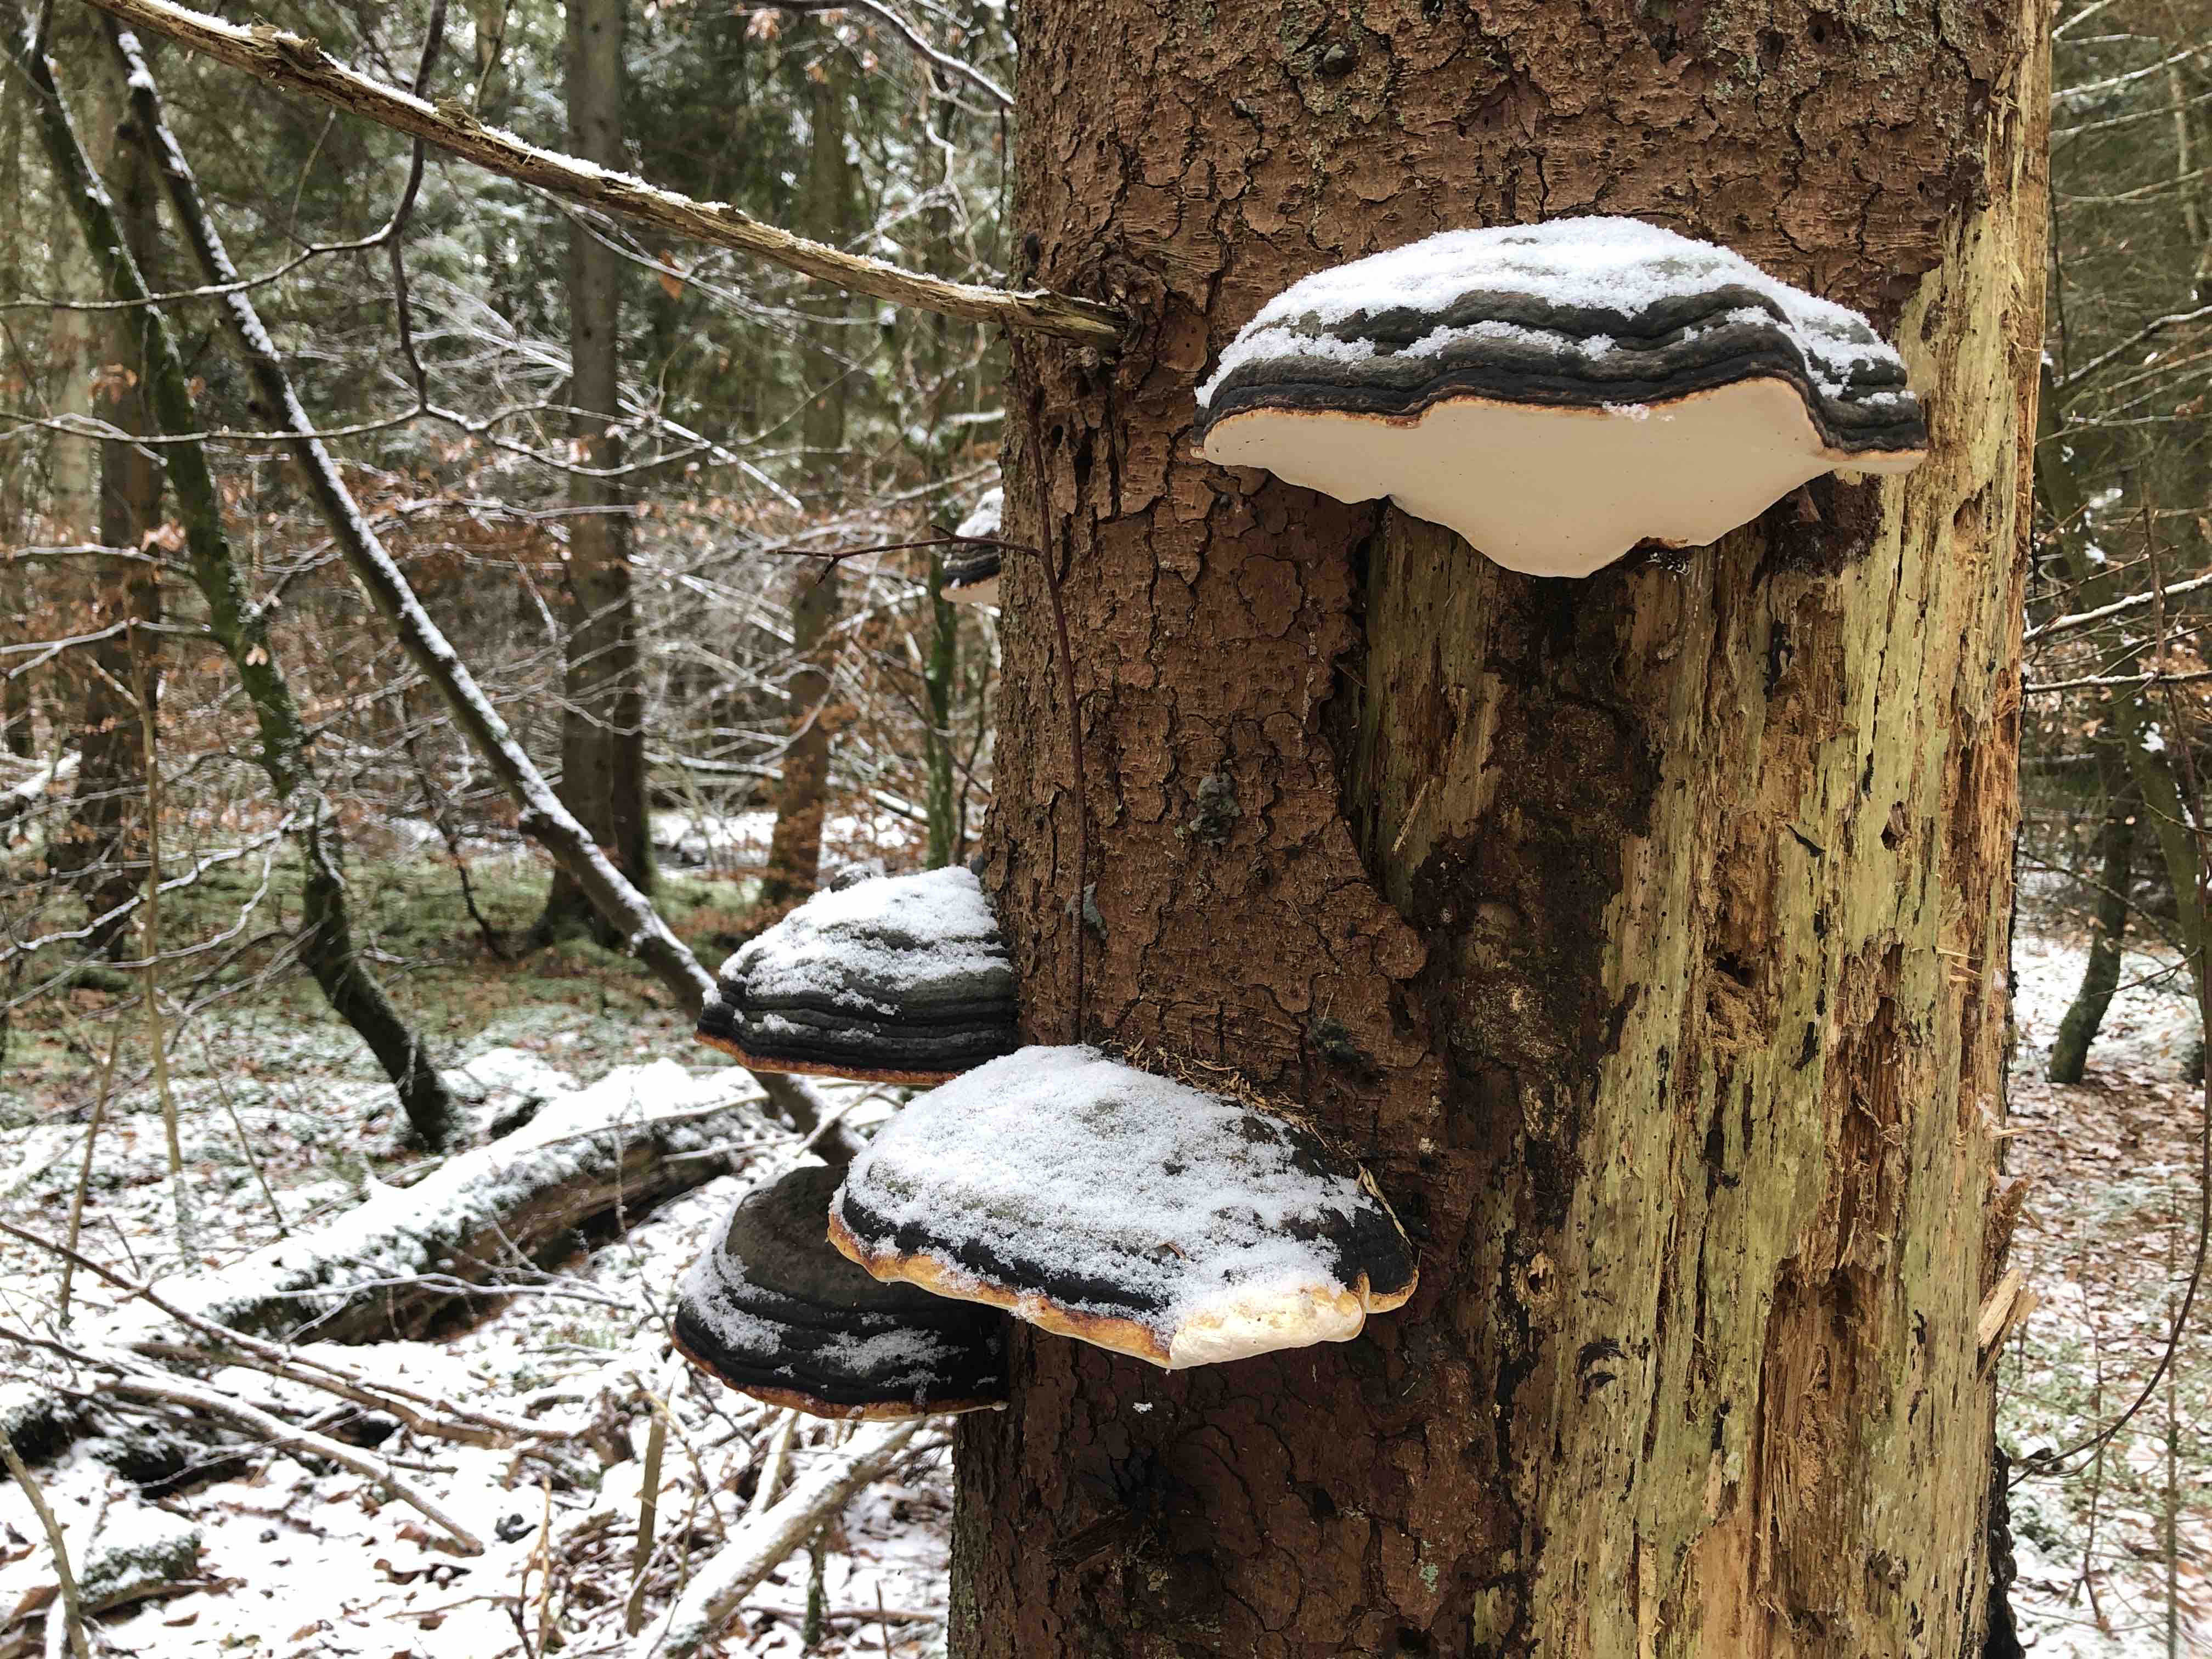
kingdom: Fungi
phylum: Basidiomycota
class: Agaricomycetes
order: Polyporales
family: Fomitopsidaceae
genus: Fomitopsis
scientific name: Fomitopsis pinicola
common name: randbæltet hovporesvamp
